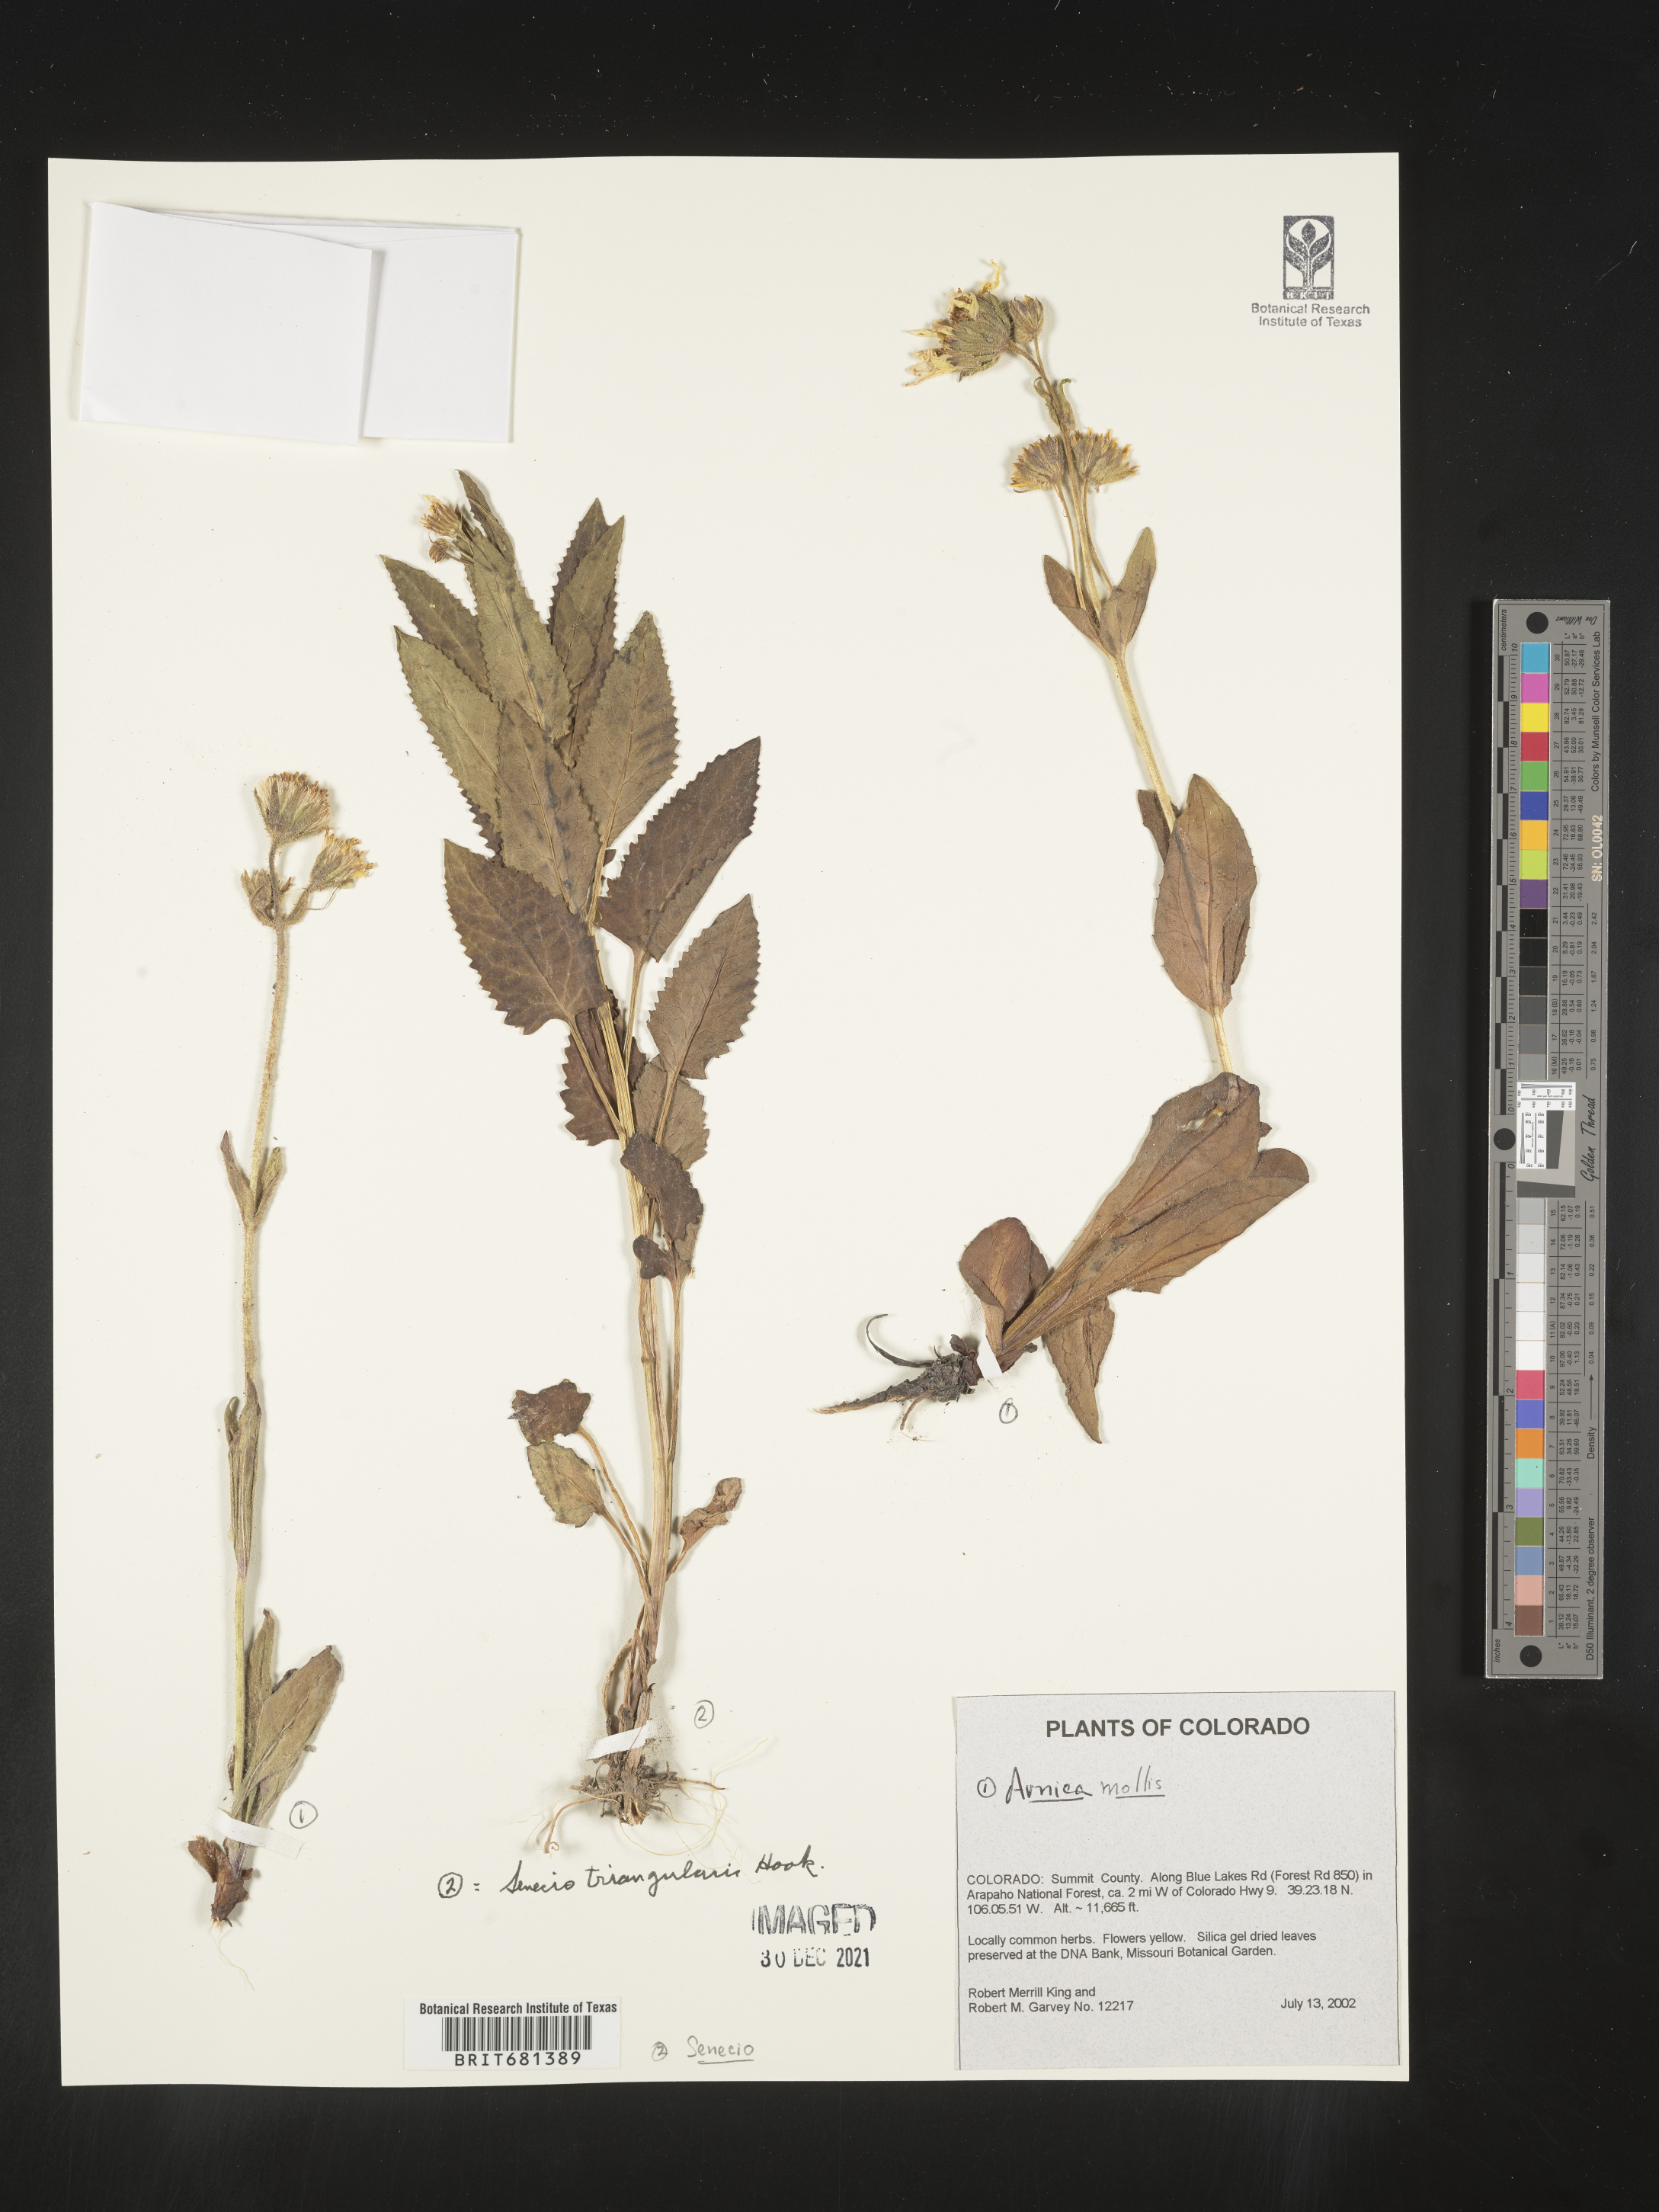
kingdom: Plantae
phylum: Tracheophyta
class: Magnoliopsida
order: Asterales
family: Asteraceae
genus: Arnica
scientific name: Arnica mollis
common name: Hairy arnica
